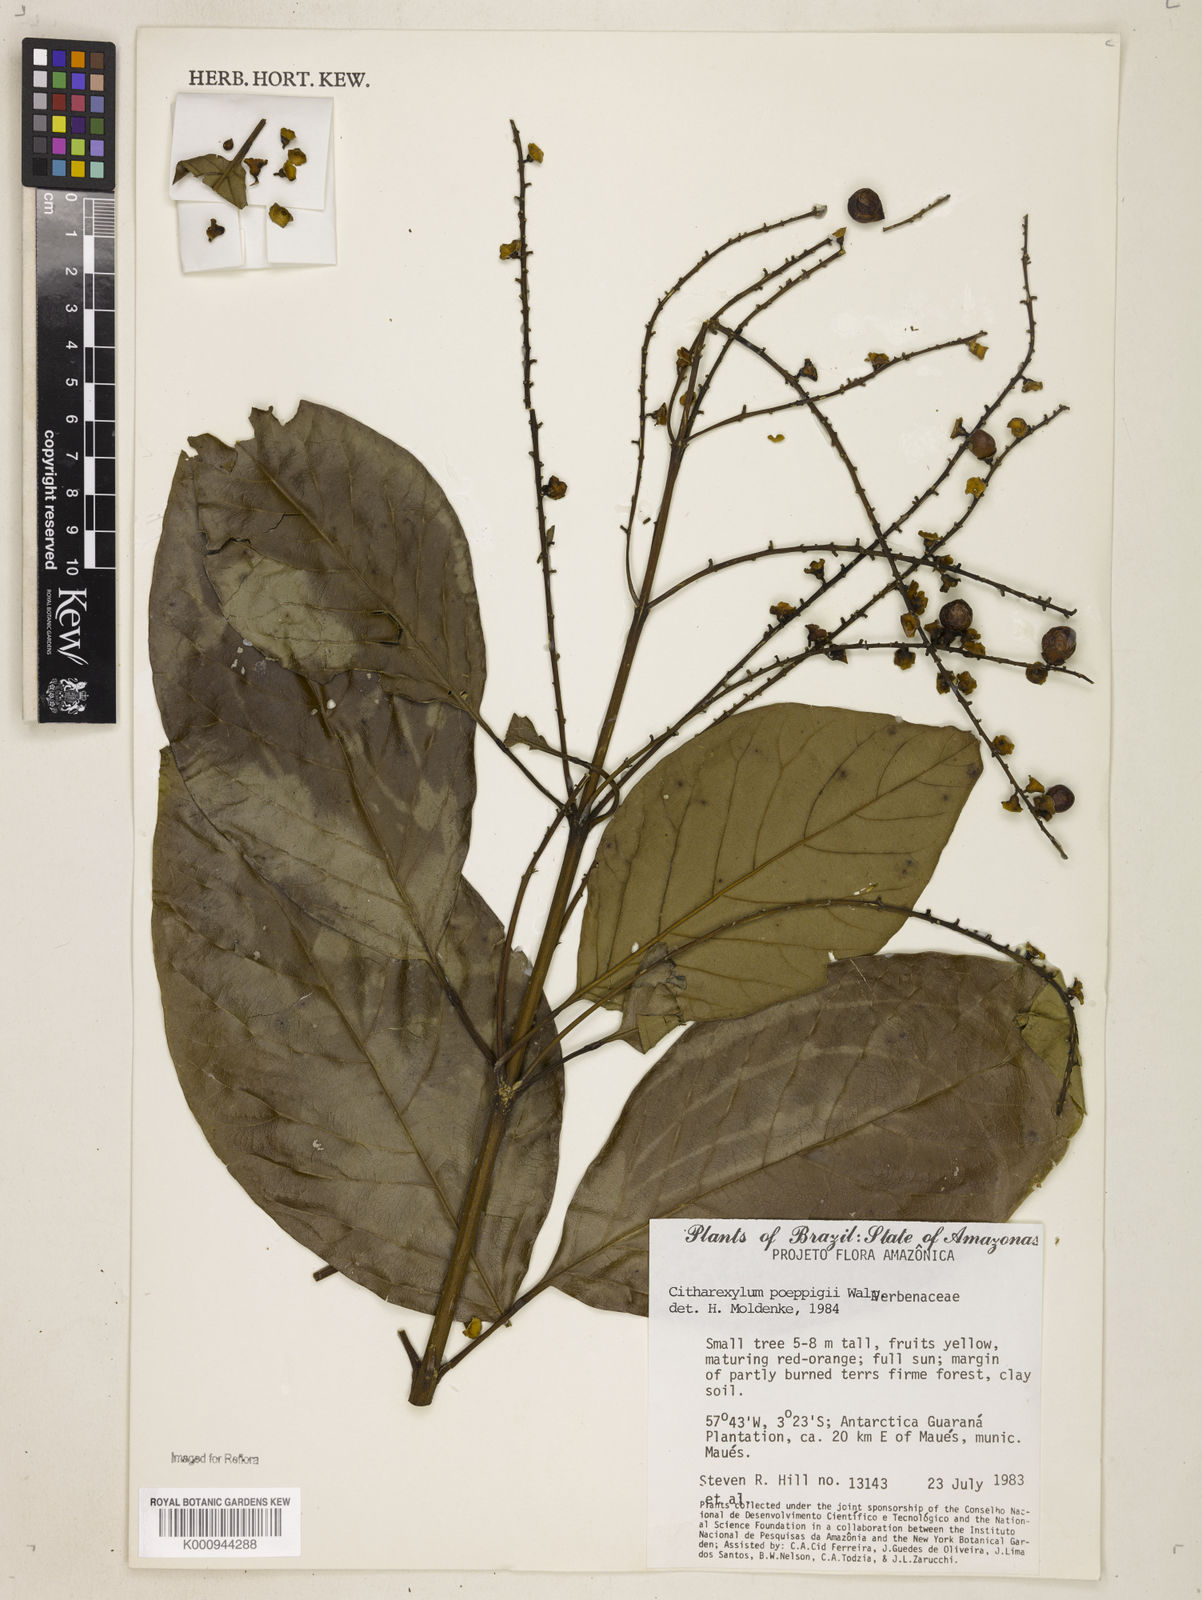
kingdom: Plantae
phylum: Tracheophyta
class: Magnoliopsida
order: Lamiales
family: Verbenaceae
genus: Citharexylum
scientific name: Citharexylum poeppigii
